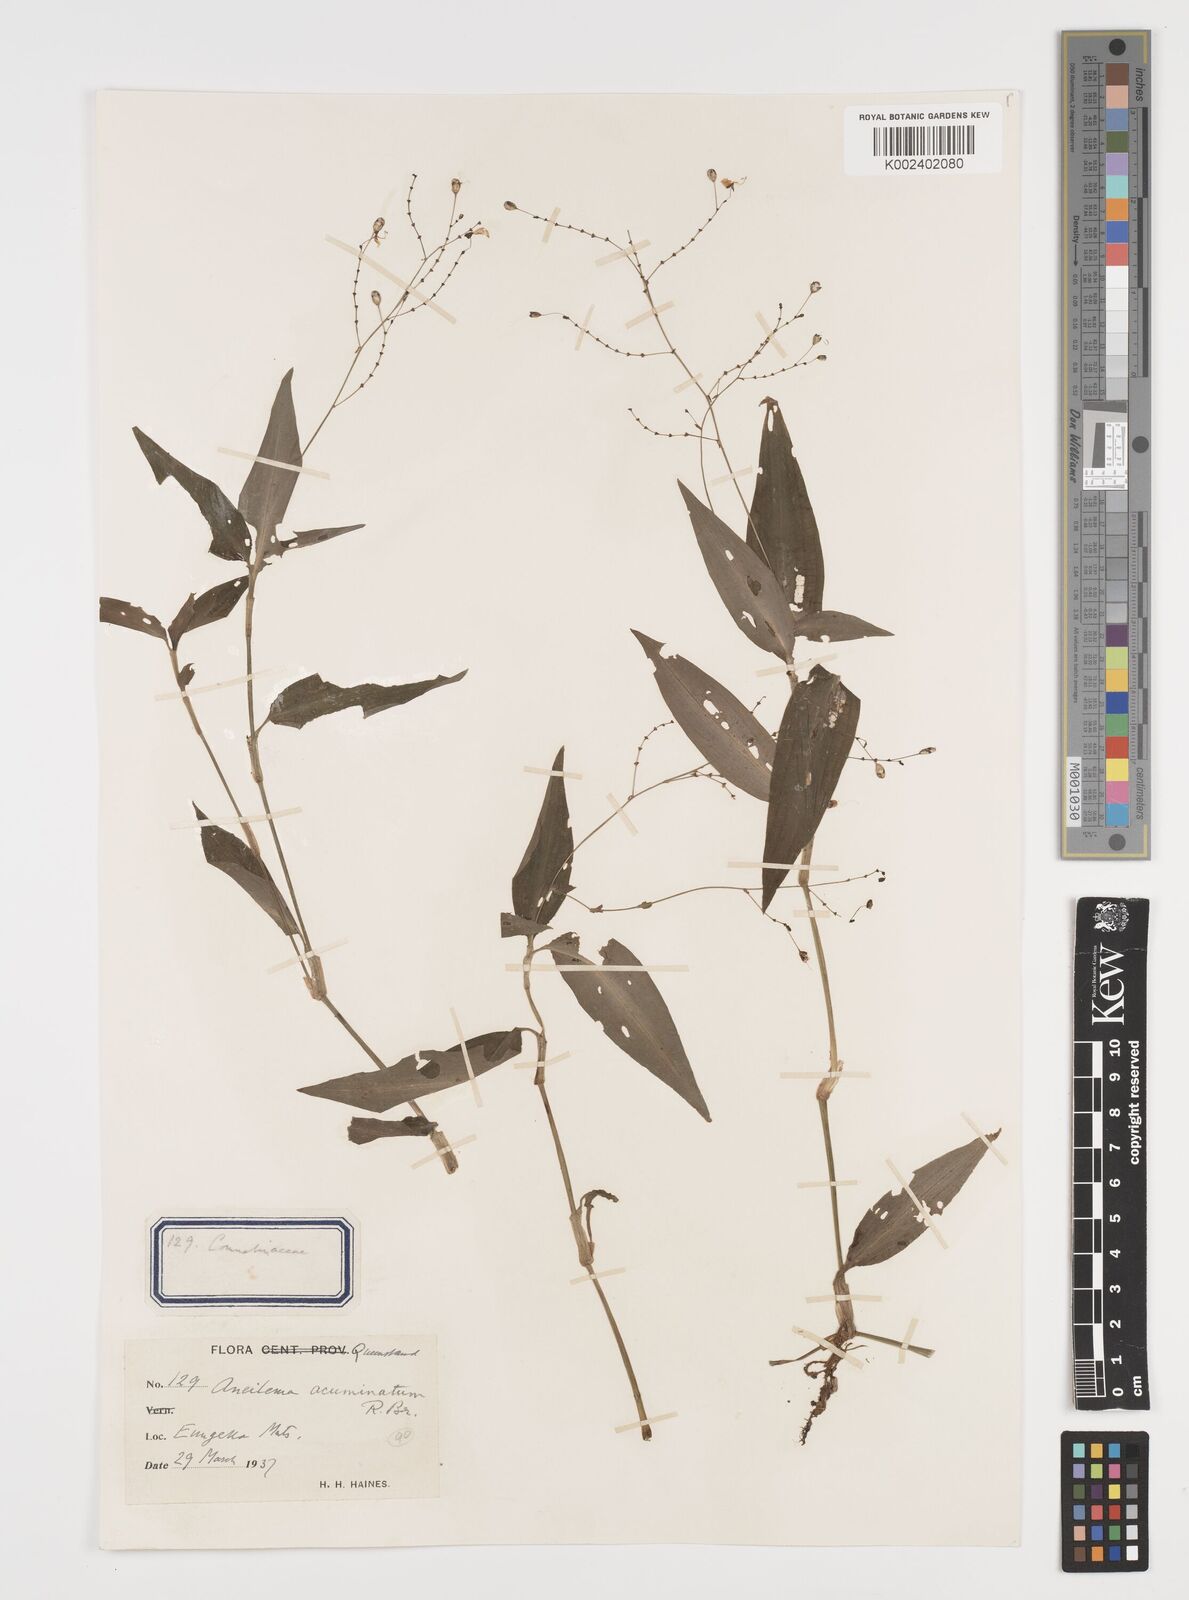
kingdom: Plantae
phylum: Tracheophyta
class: Liliopsida
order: Commelinales
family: Commelinaceae
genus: Aneilema
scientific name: Aneilema acuminatum
